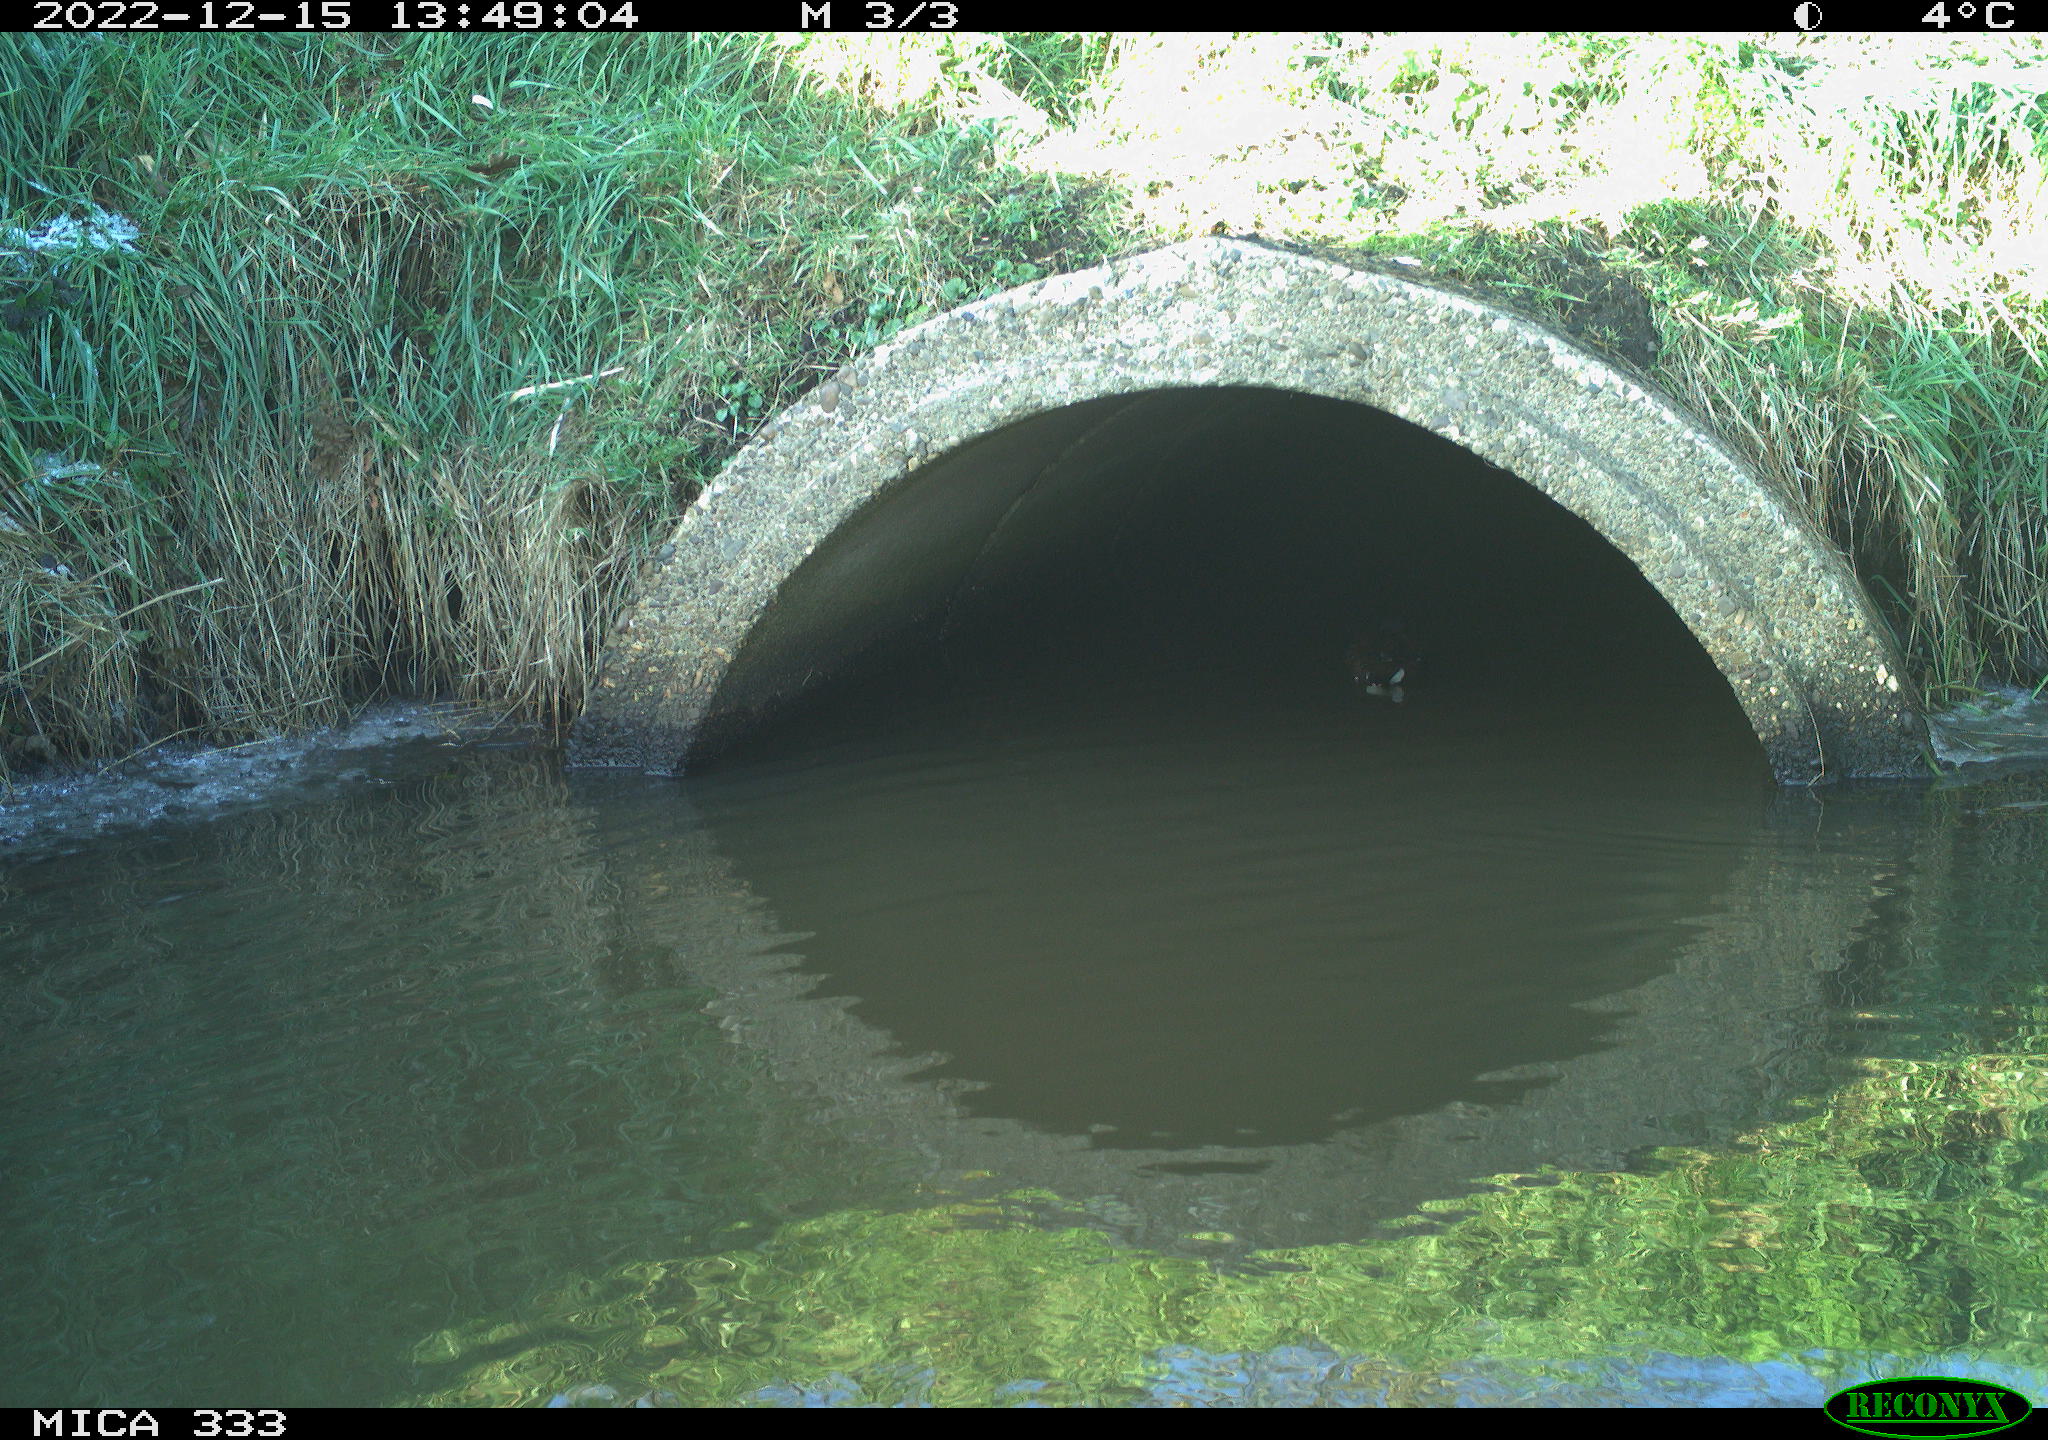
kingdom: Animalia
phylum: Chordata
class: Aves
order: Gruiformes
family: Rallidae
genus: Gallinula
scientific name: Gallinula chloropus
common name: Common moorhen
